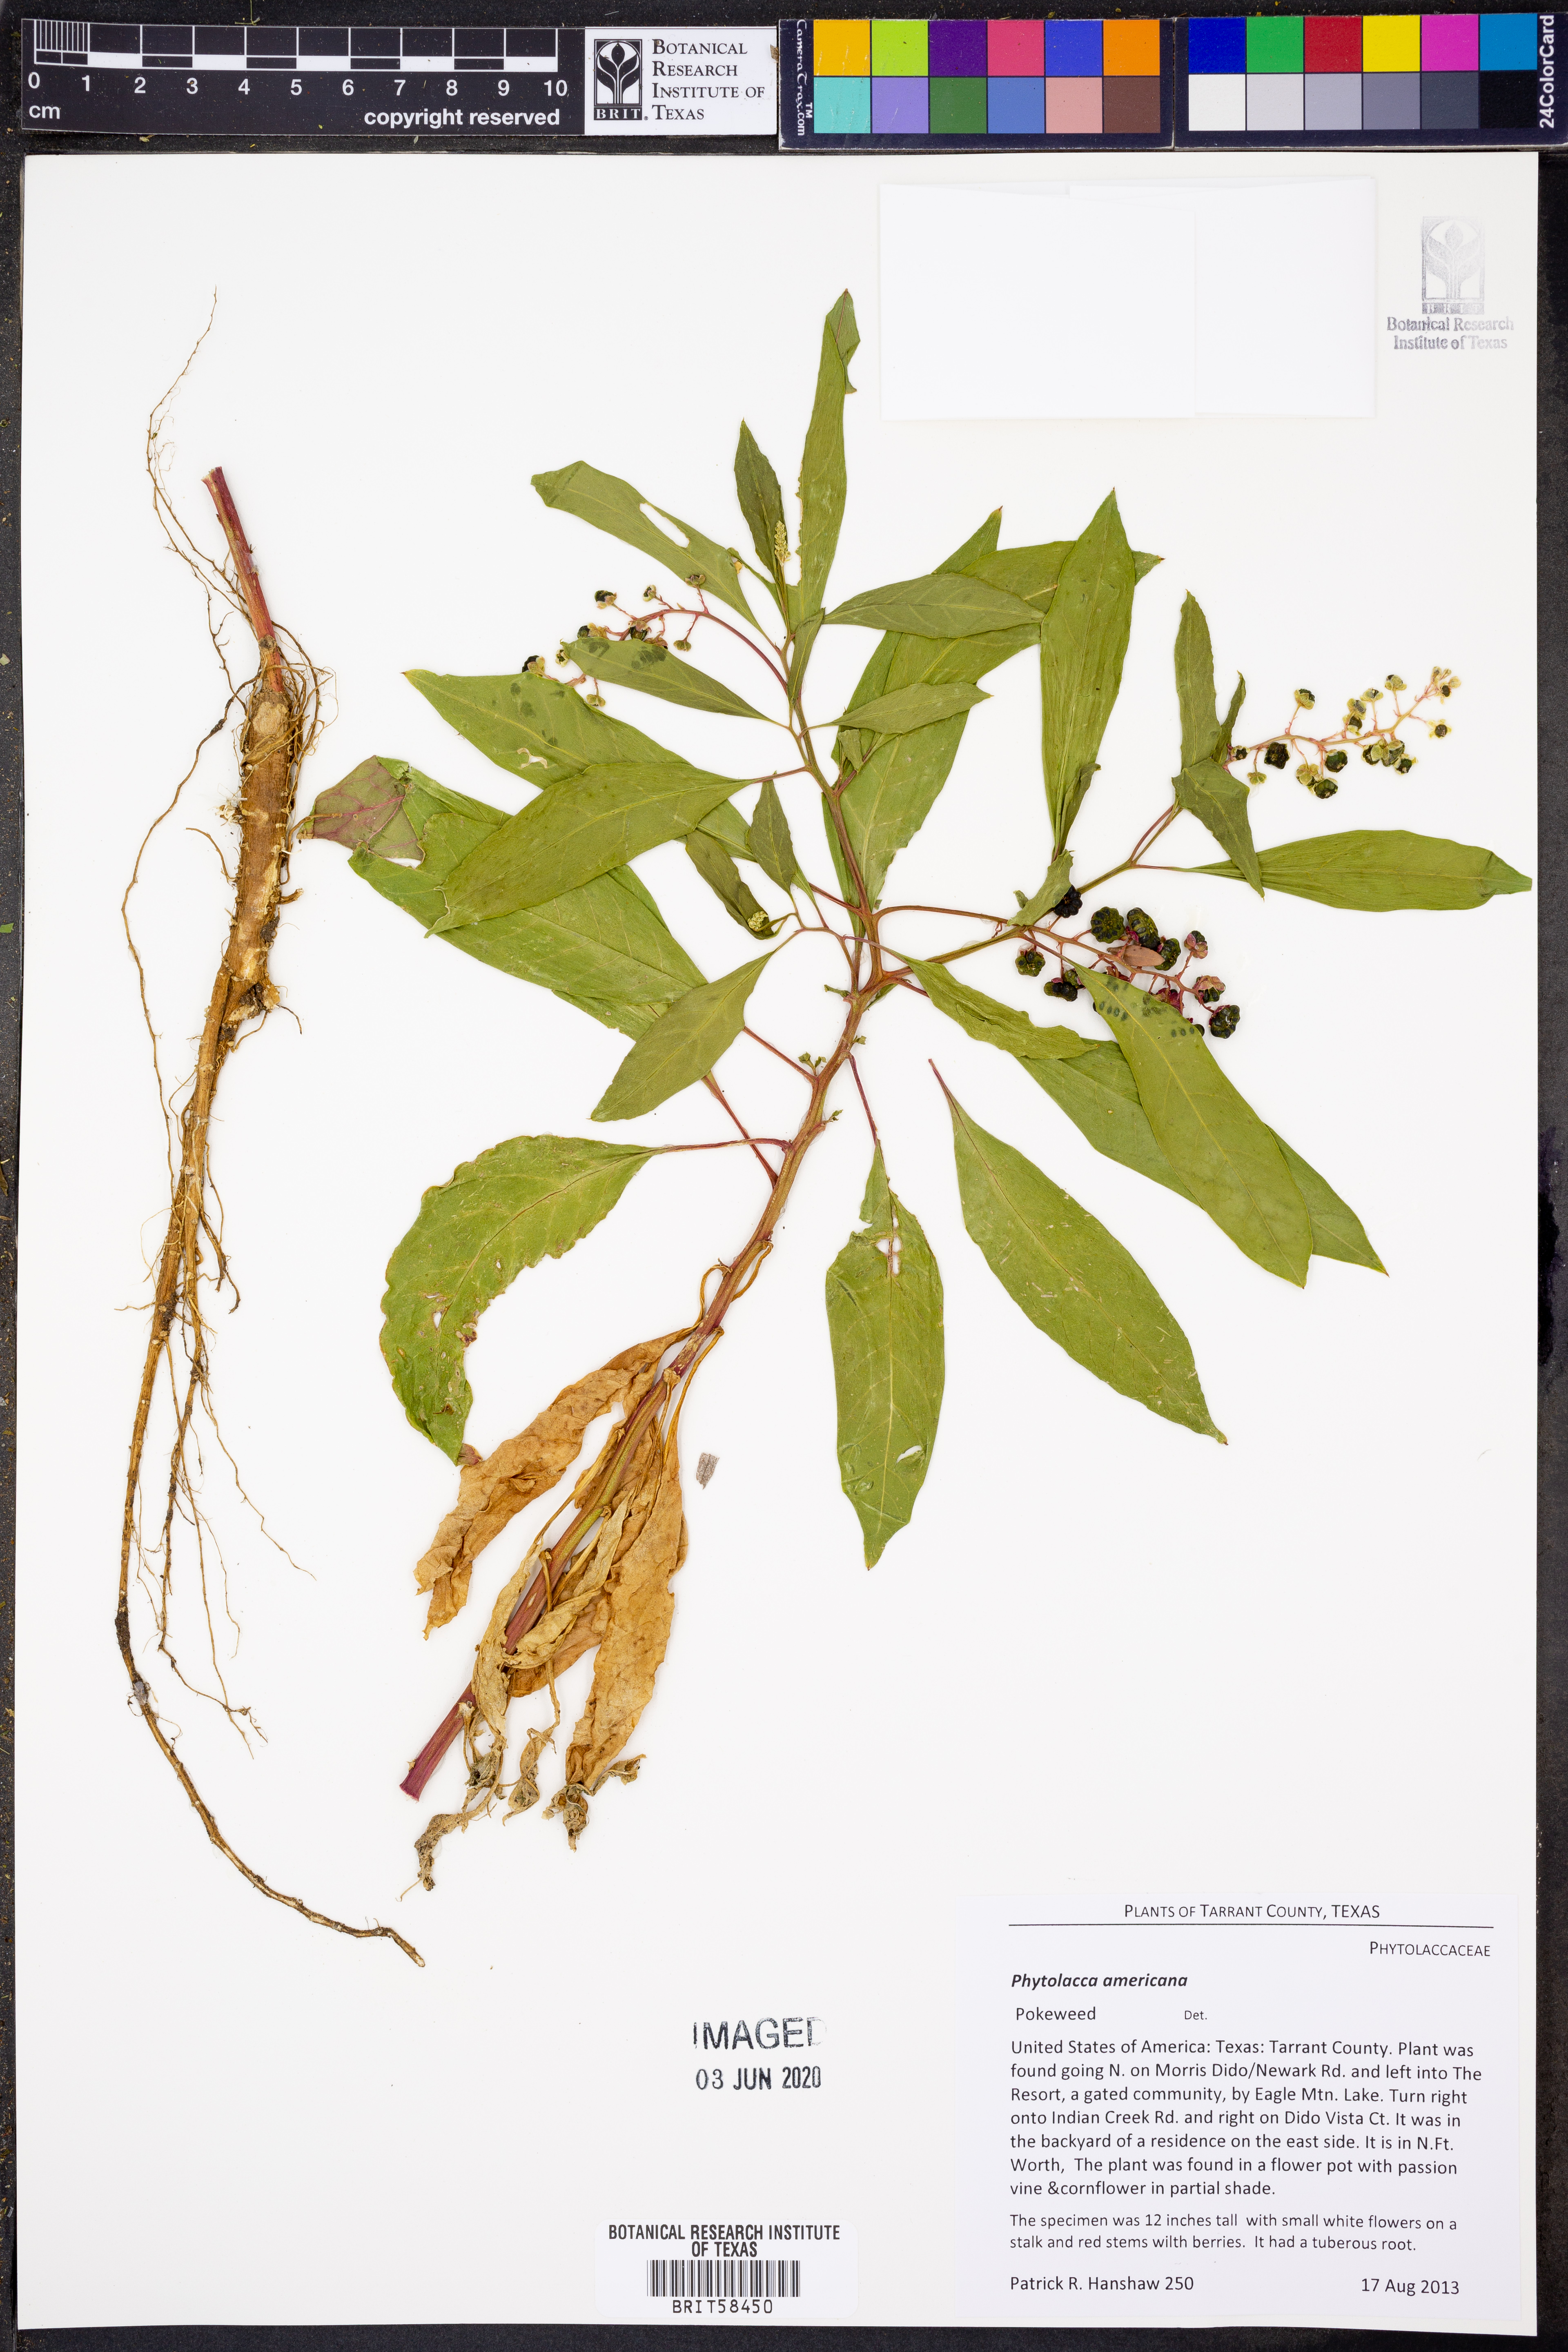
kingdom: Plantae
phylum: Tracheophyta
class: Magnoliopsida
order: Caryophyllales
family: Phytolaccaceae
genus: Phytolacca
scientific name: Phytolacca americana
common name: American pokeweed
